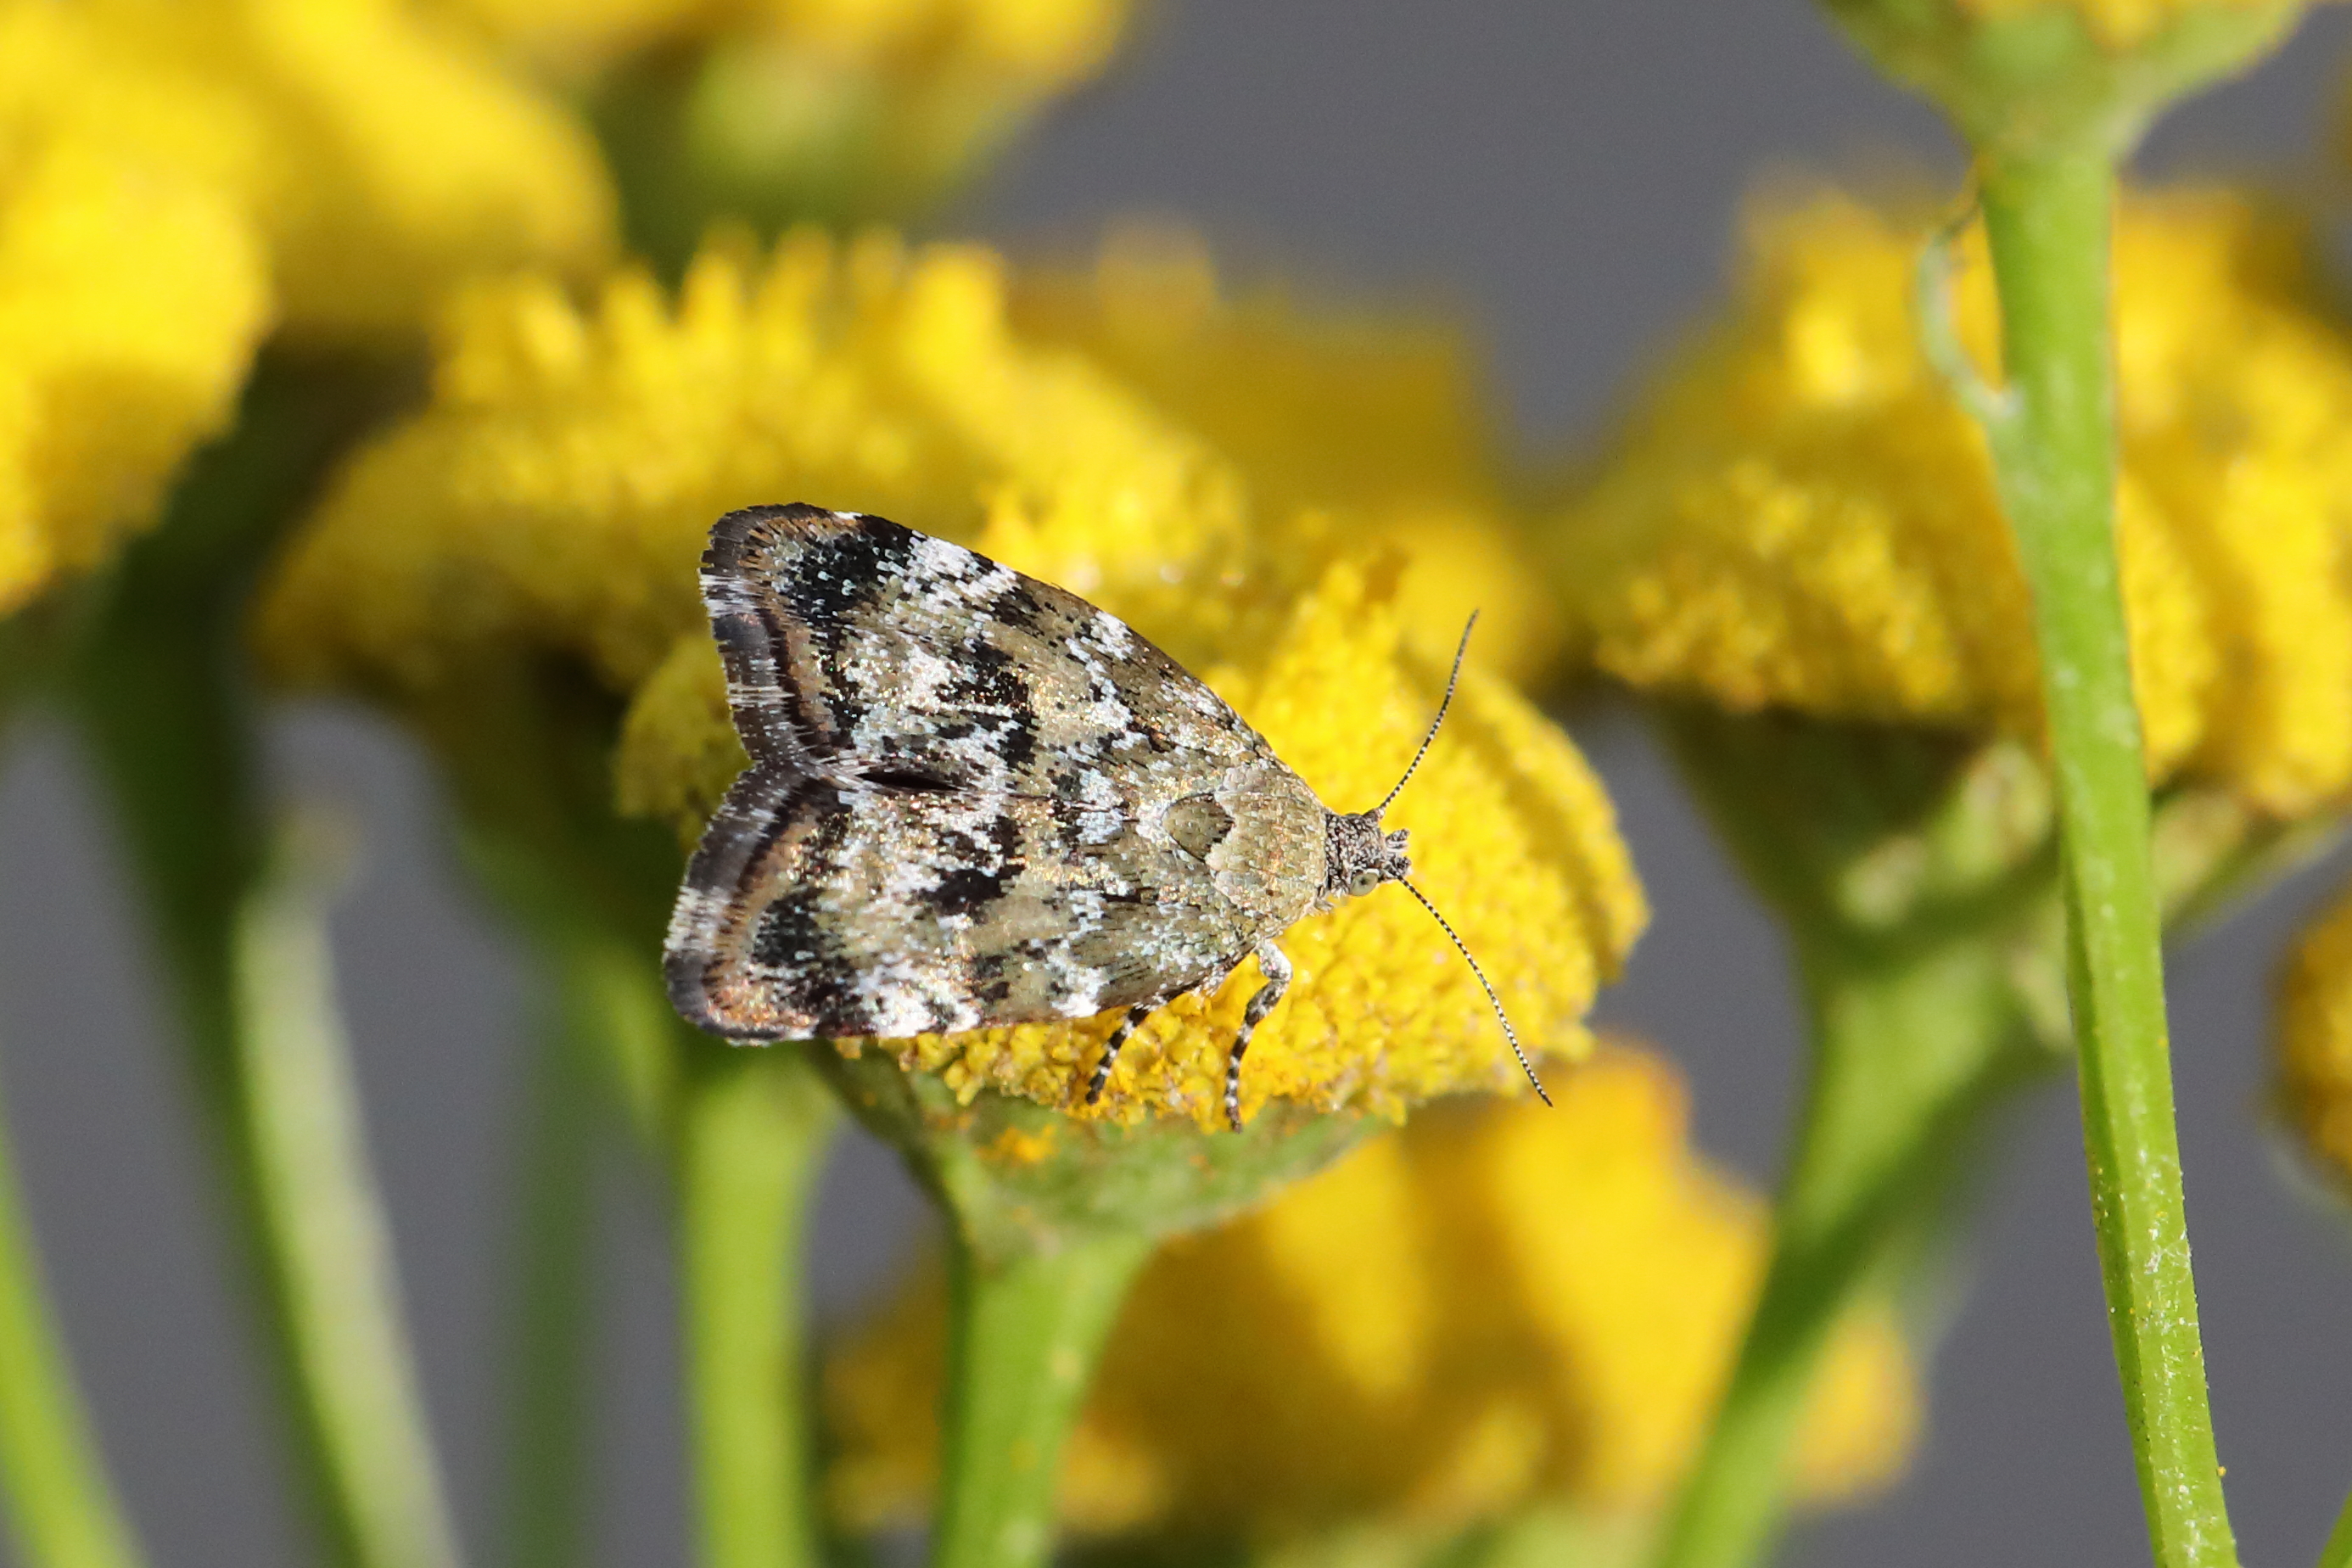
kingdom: Animalia
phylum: Arthropoda
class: Insecta
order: Lepidoptera
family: Choreutidae
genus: Choreutis
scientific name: Choreutis diana
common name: Inverness twitcher
